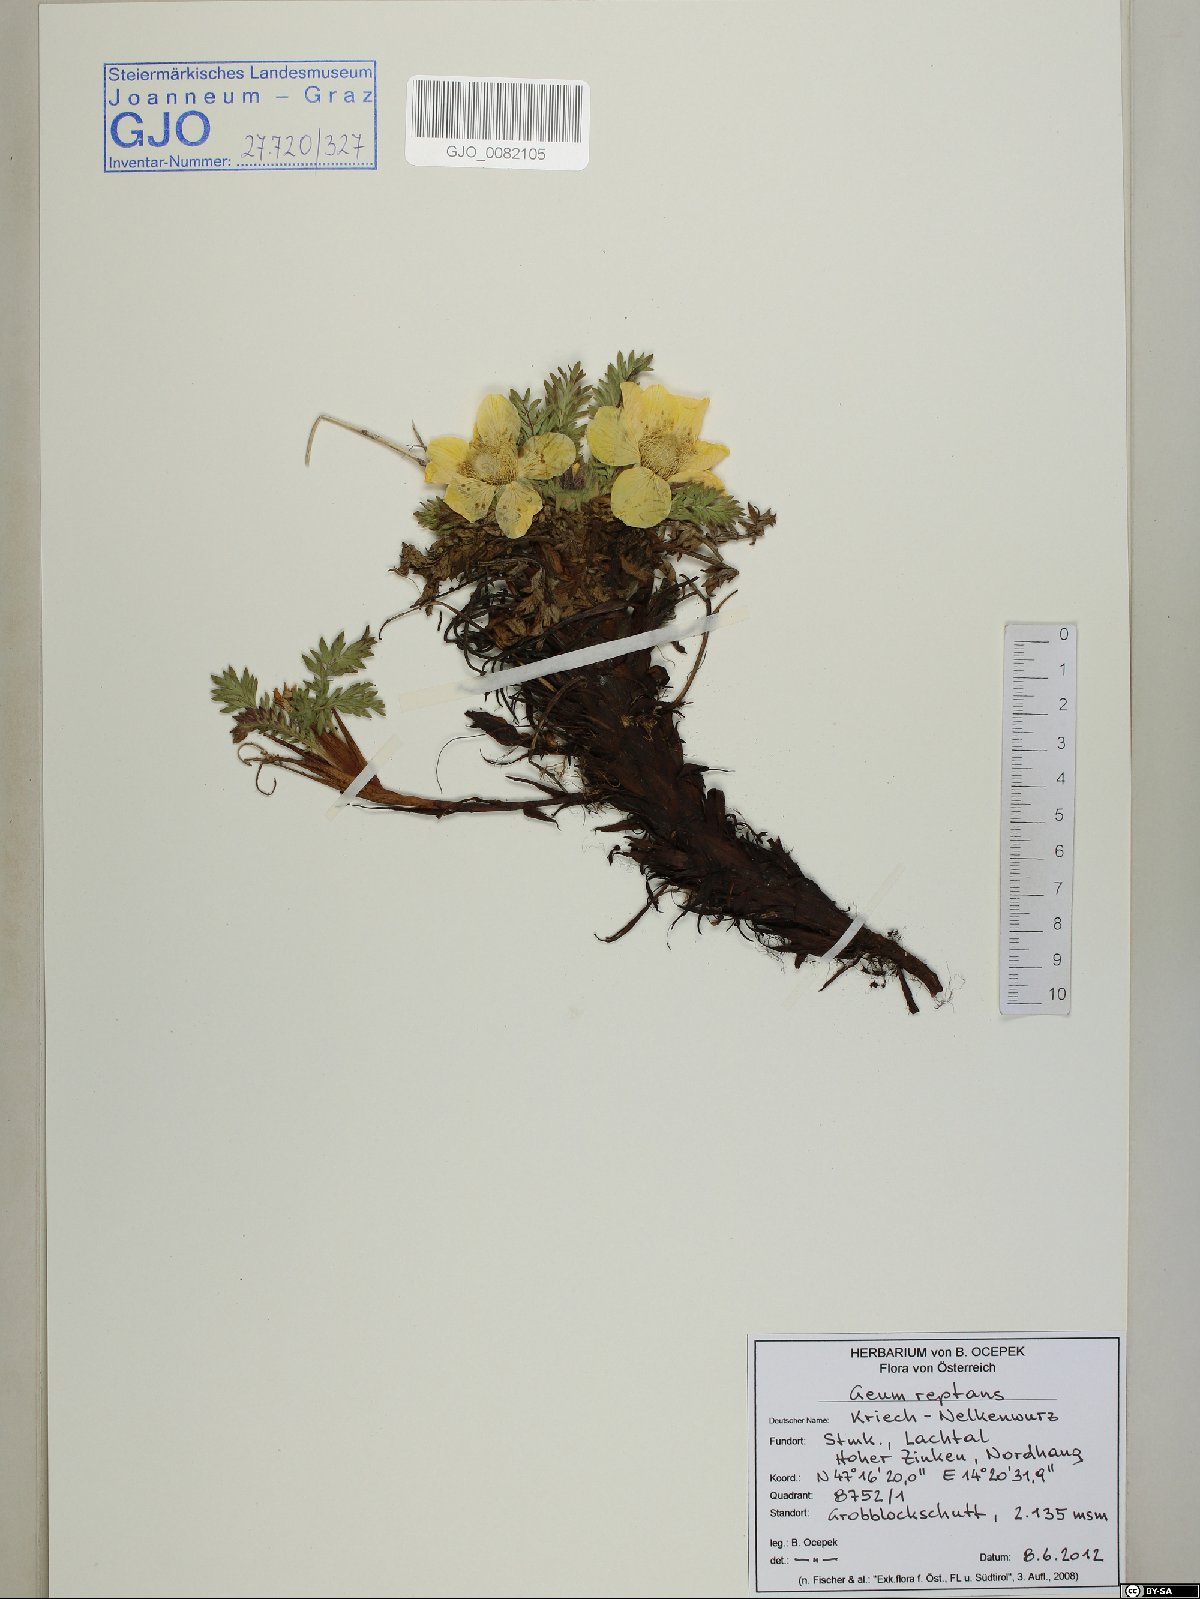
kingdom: Plantae
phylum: Tracheophyta
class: Magnoliopsida
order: Rosales
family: Rosaceae
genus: Geum
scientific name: Geum reptans
